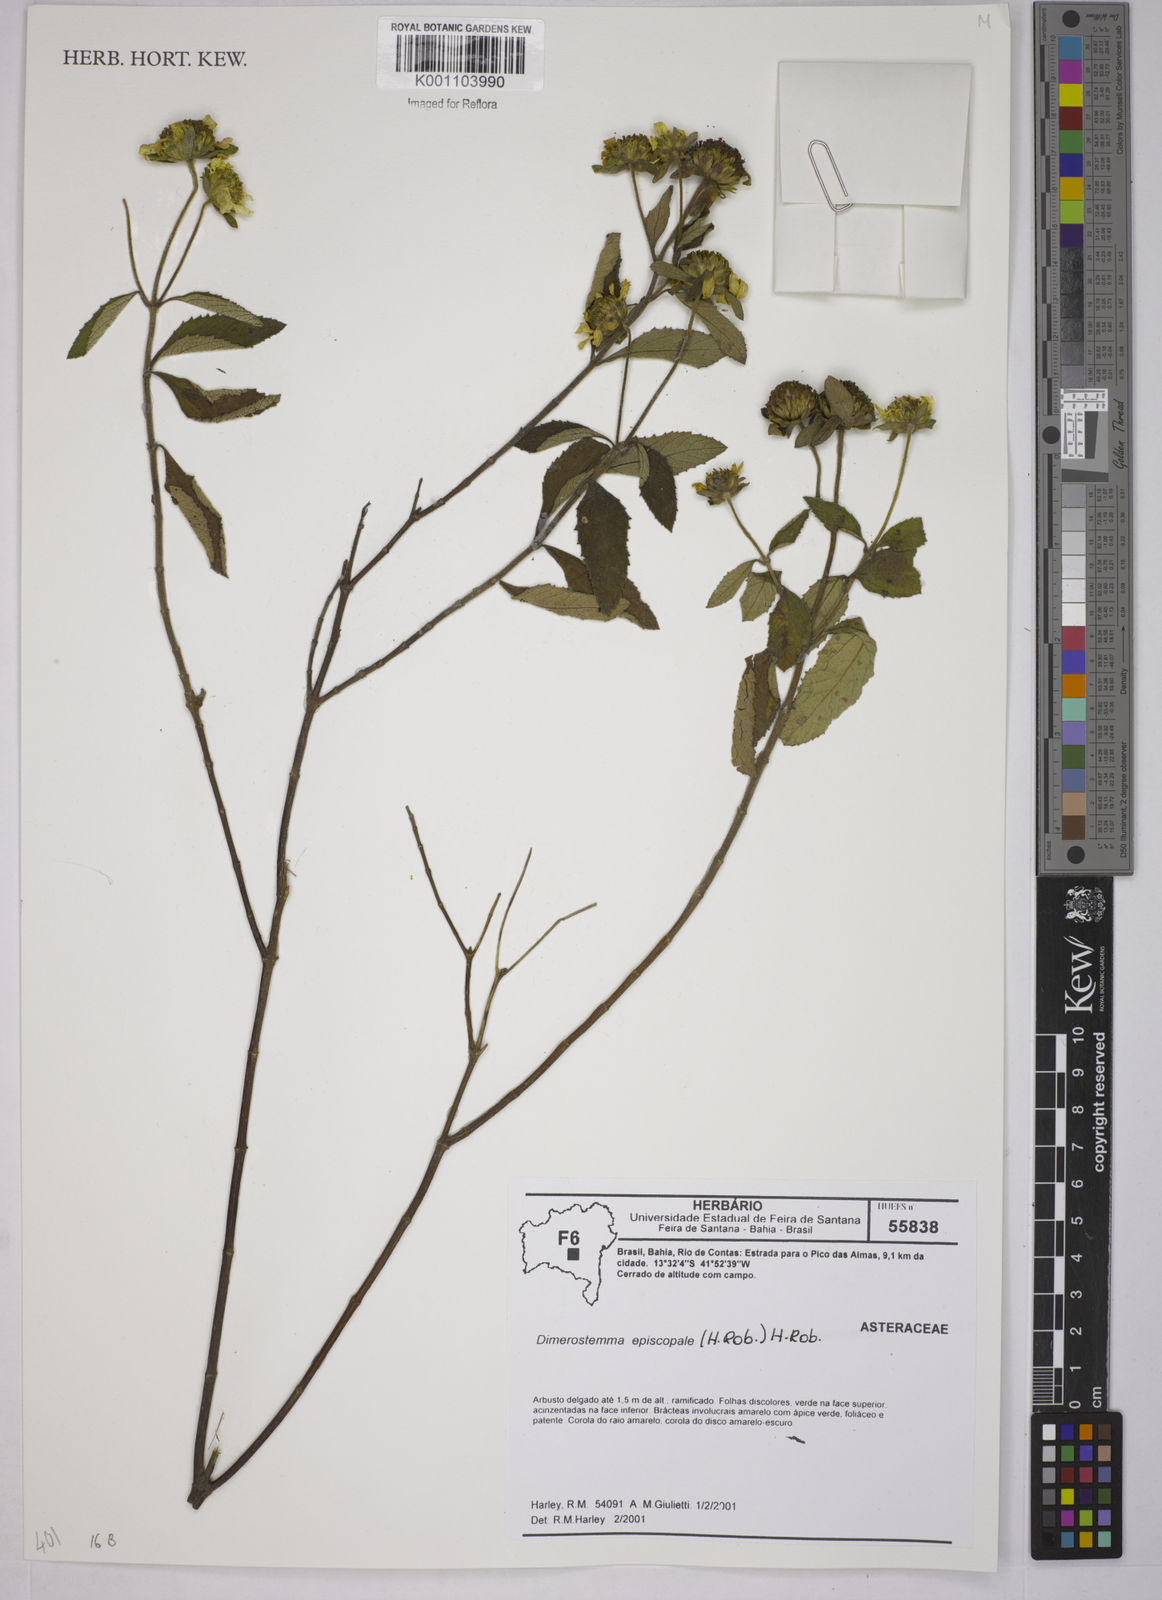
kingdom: Plantae
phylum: Tracheophyta
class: Magnoliopsida
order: Asterales
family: Asteraceae
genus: Dimerostemma
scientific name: Dimerostemma episcopale
